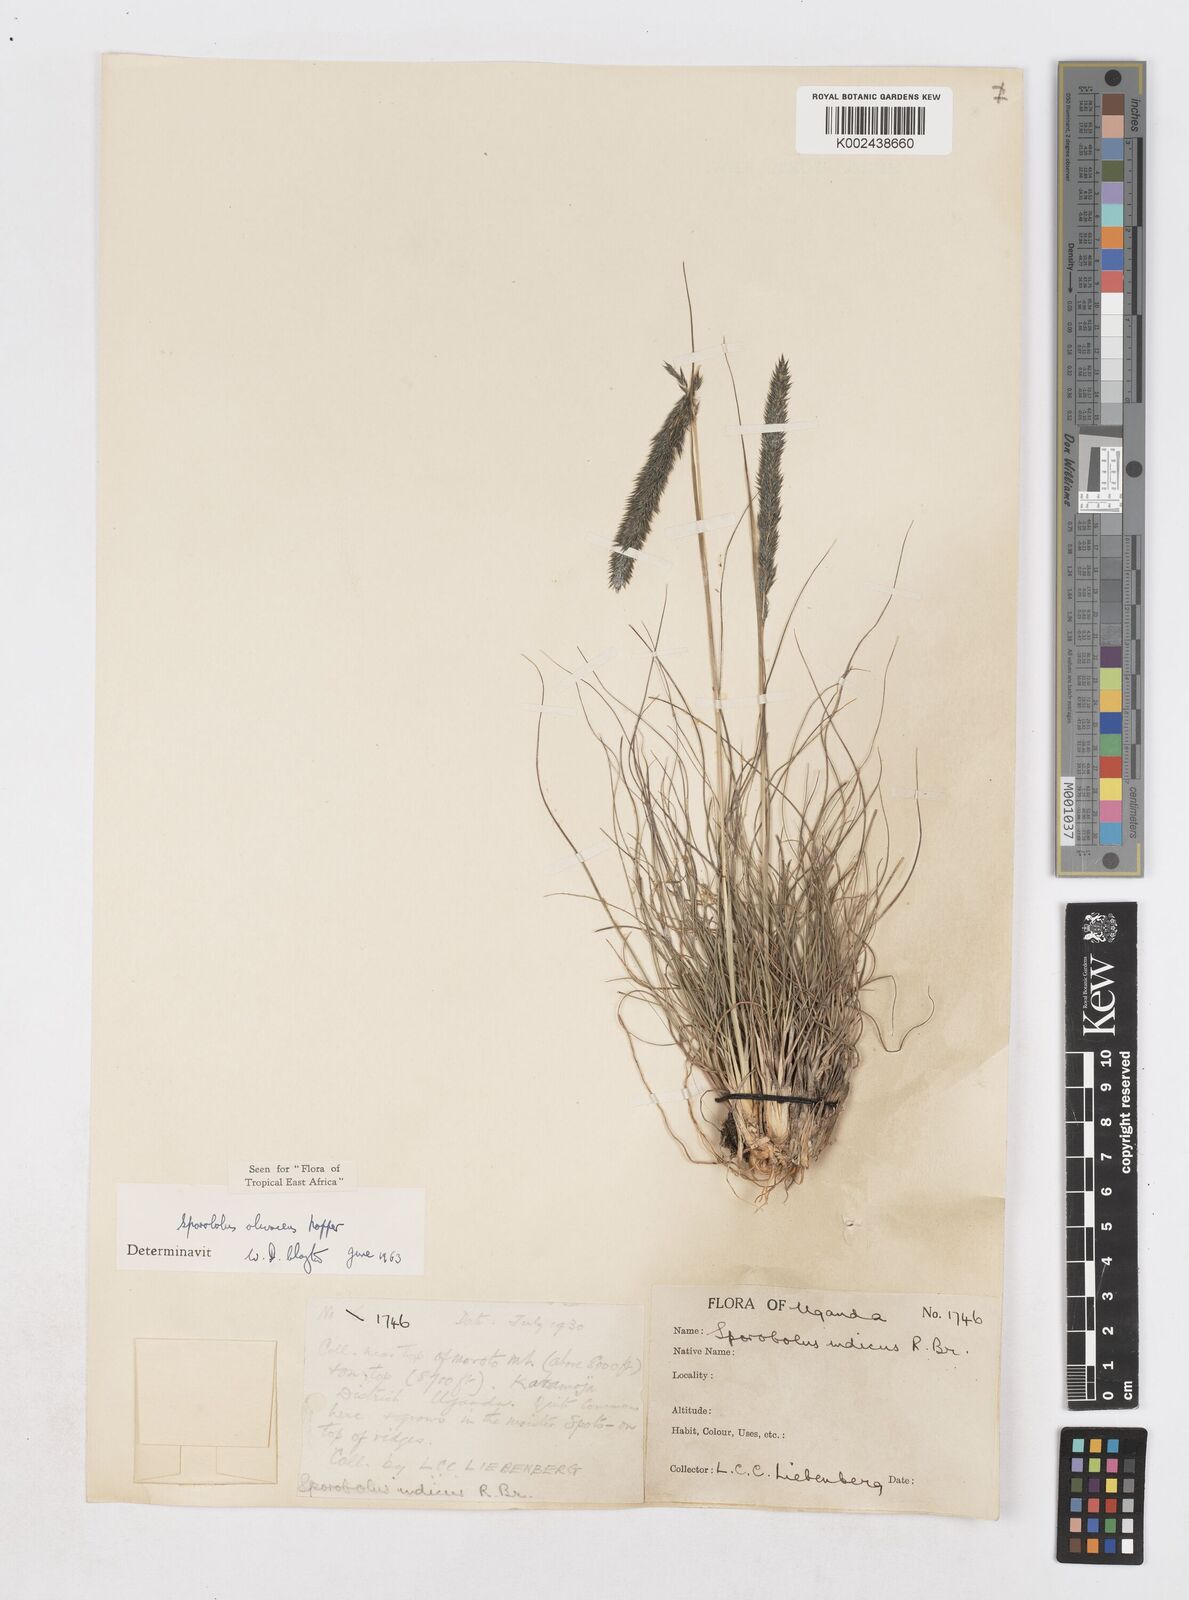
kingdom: Plantae
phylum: Tracheophyta
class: Liliopsida
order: Poales
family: Poaceae
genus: Sporobolus
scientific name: Sporobolus olivaceus
